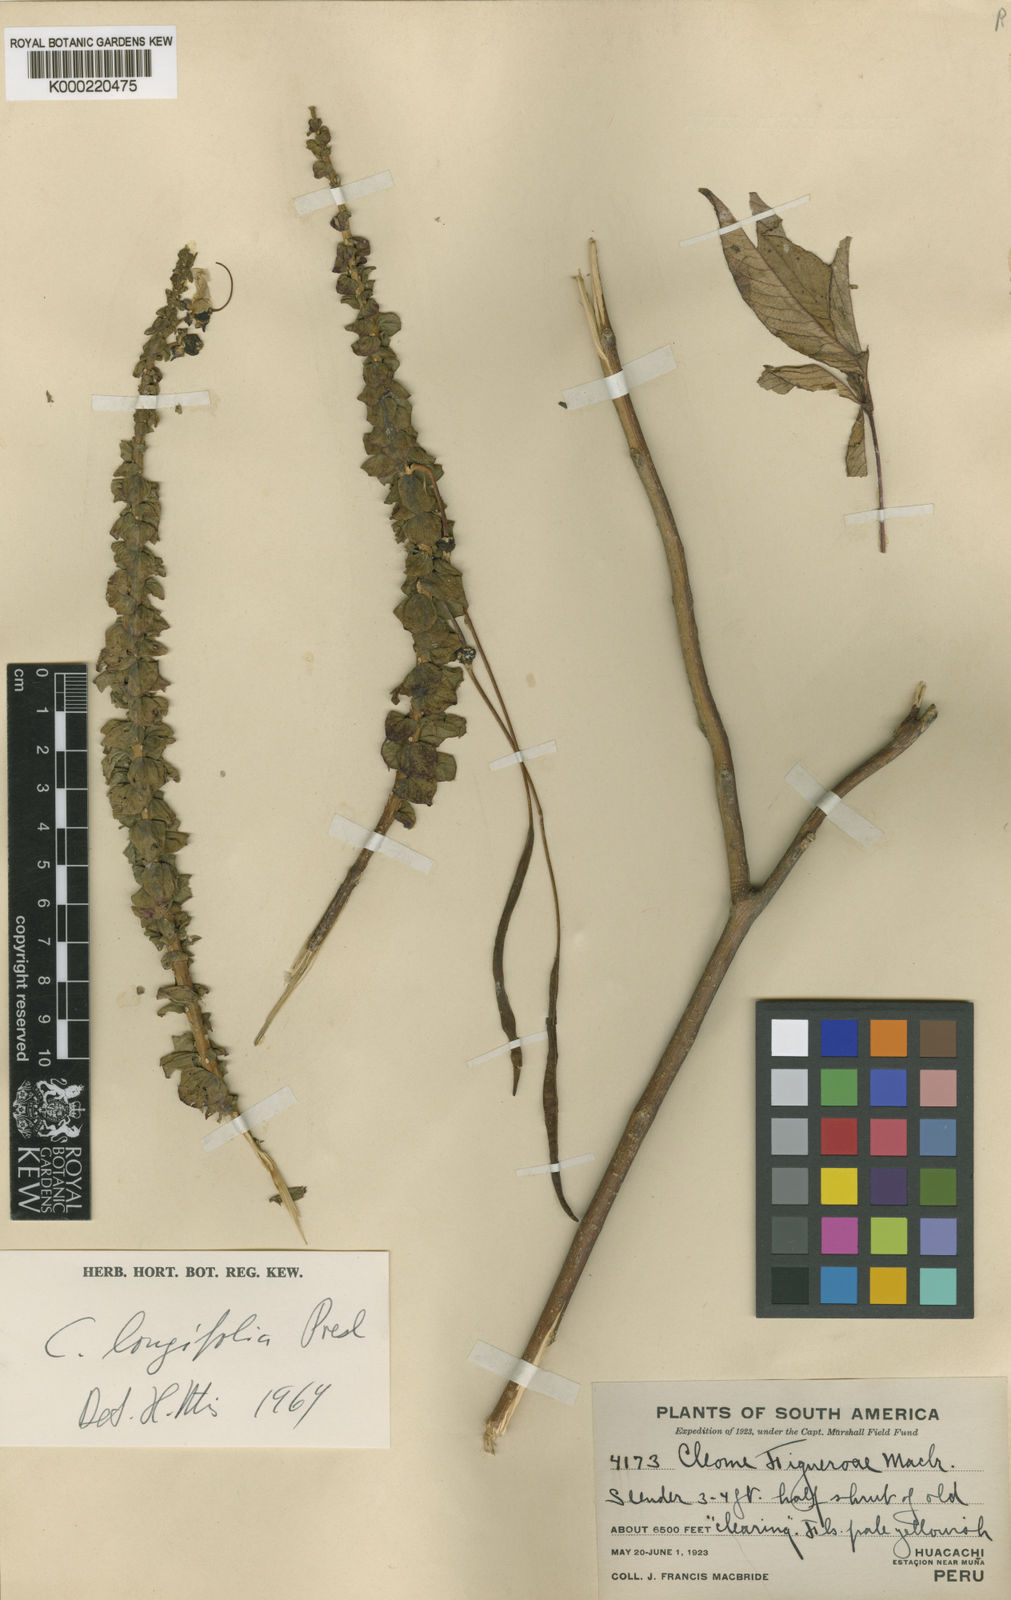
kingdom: Plantae
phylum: Tracheophyta
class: Magnoliopsida
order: Brassicales
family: Cleomaceae
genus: Andinocleome
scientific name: Andinocleome longifolia
